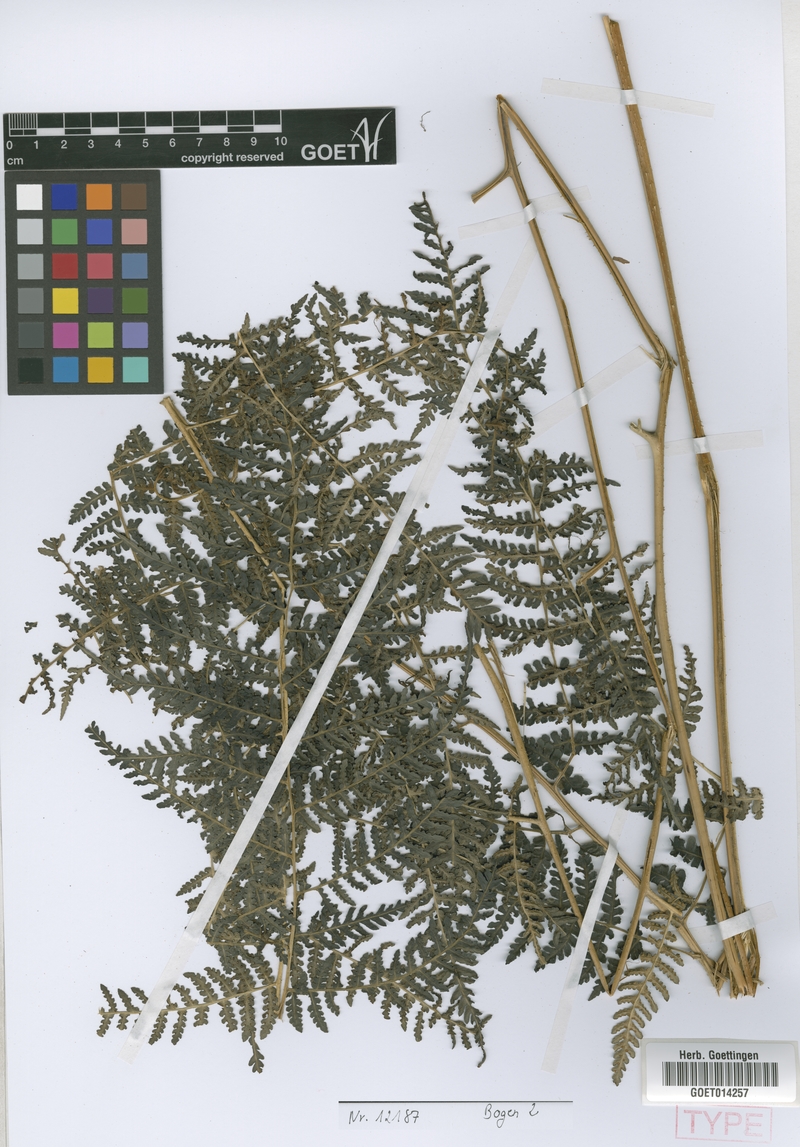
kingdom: Plantae
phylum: Tracheophyta
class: Polypodiopsida
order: Polypodiales
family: Dennstaedtiaceae
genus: Hypolepis
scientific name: Hypolepis scandens
